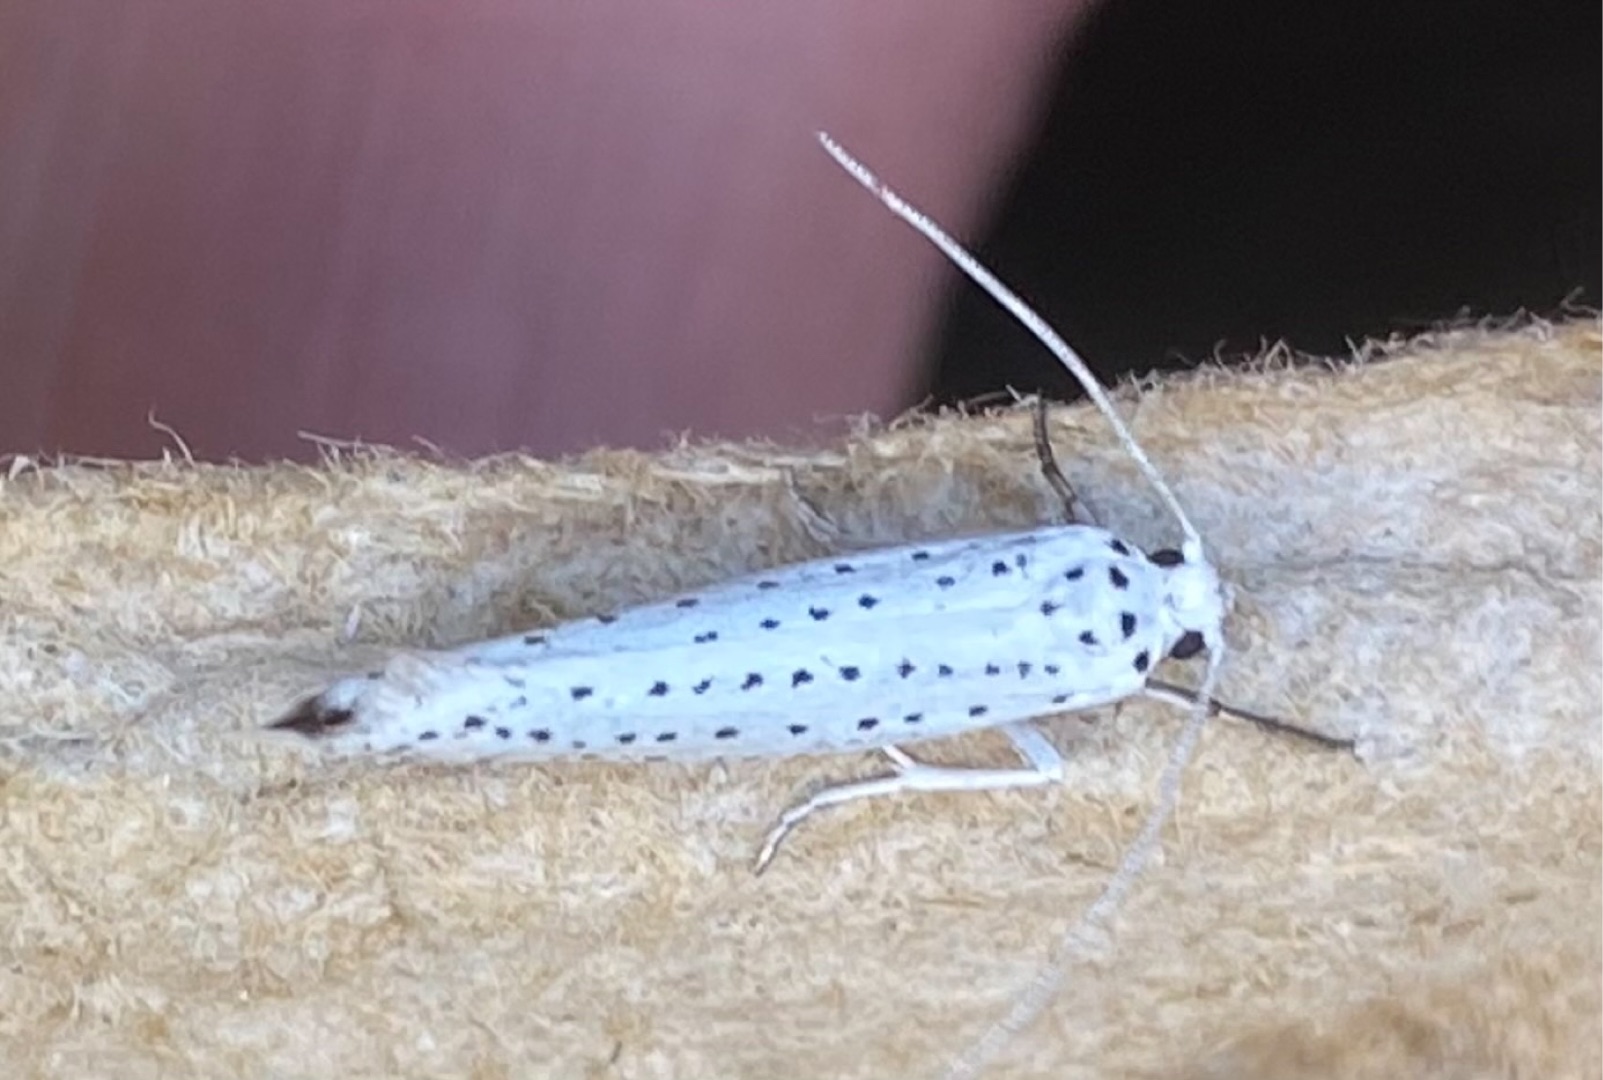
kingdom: Animalia
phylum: Arthropoda
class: Insecta
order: Lepidoptera
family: Yponomeutidae
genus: Yponomeuta
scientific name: Yponomeuta evonymella
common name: Hægspindemøl
